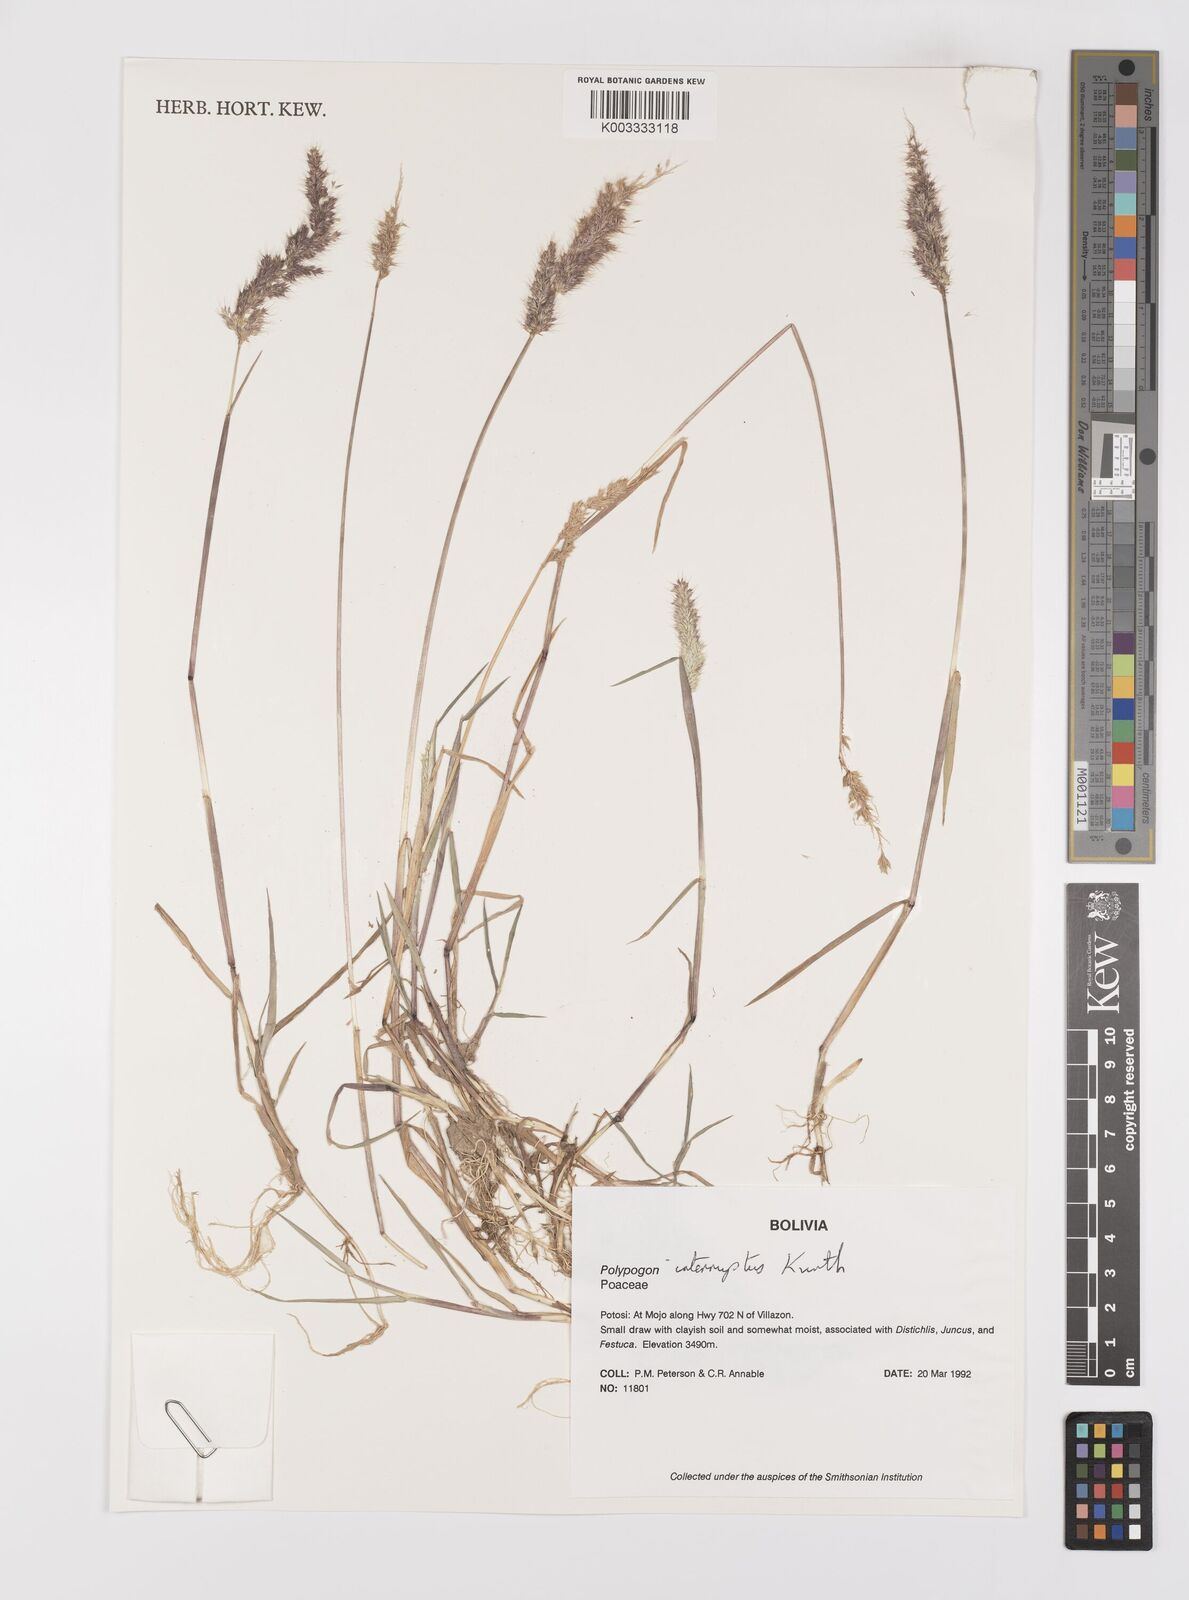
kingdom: Plantae
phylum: Tracheophyta
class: Liliopsida
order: Poales
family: Poaceae
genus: Polypogon
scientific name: Polypogon interruptus
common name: Ditch polypogon
